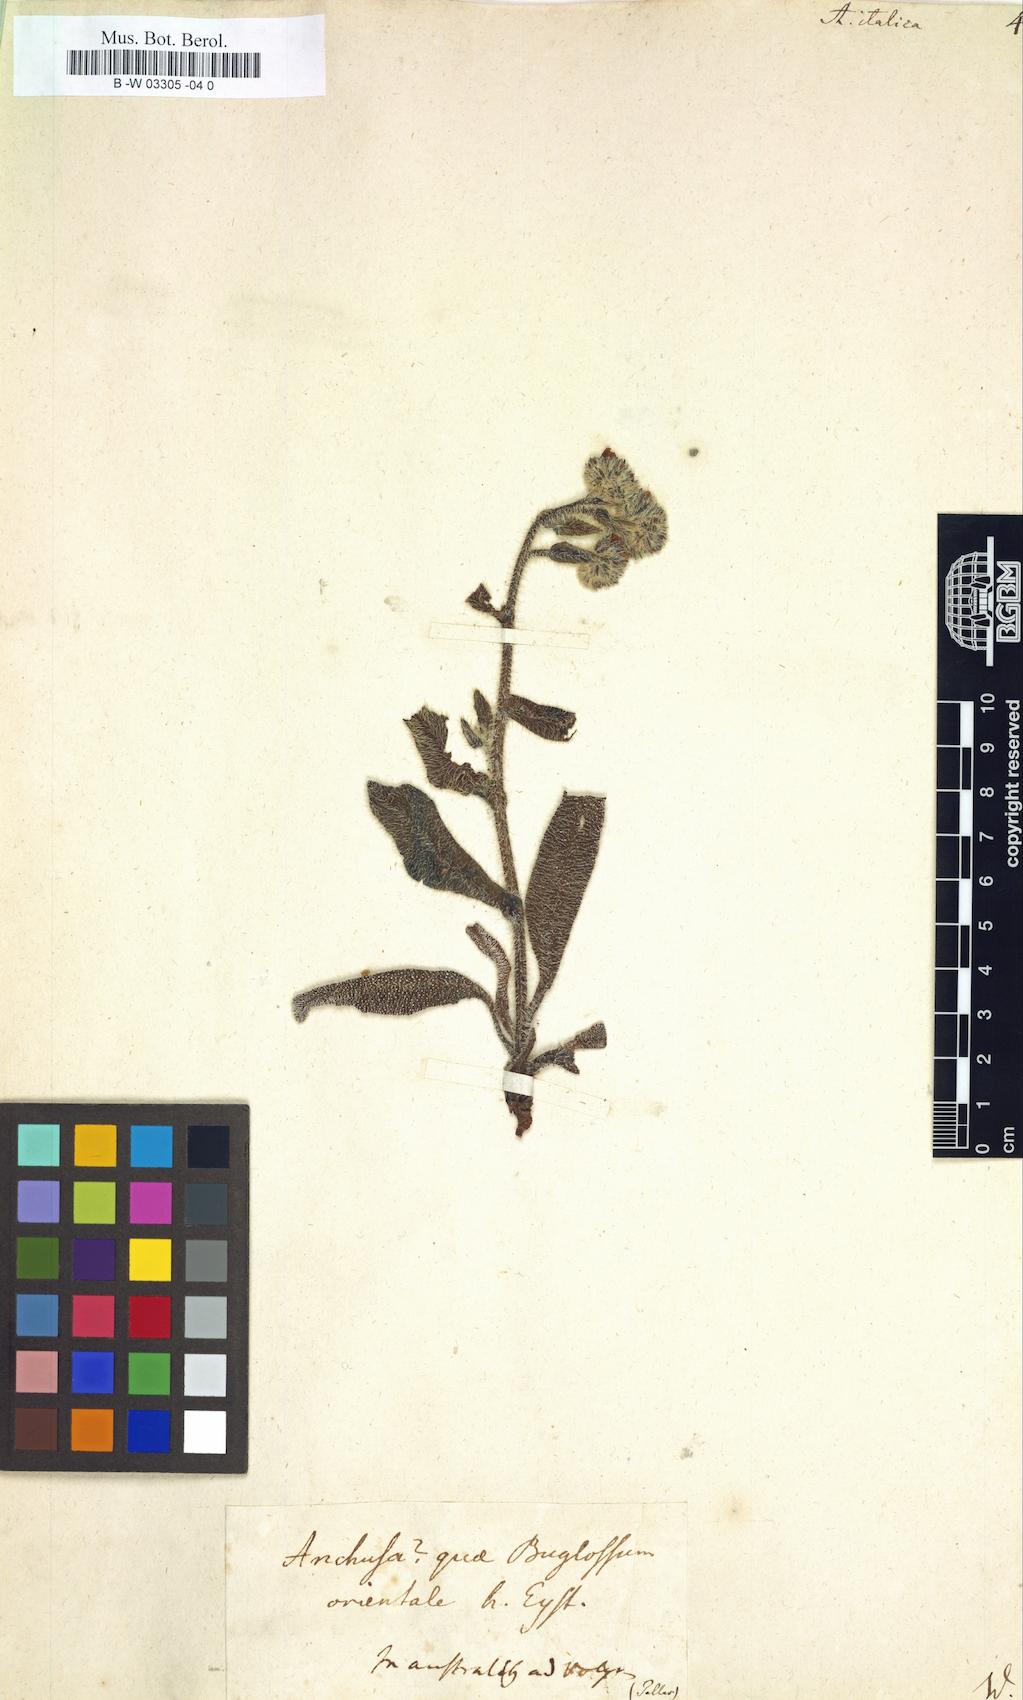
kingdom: Plantae
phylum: Tracheophyta
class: Magnoliopsida
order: Boraginales
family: Boraginaceae
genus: Anchusa
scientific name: Anchusa azurea
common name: Garden anchusa
